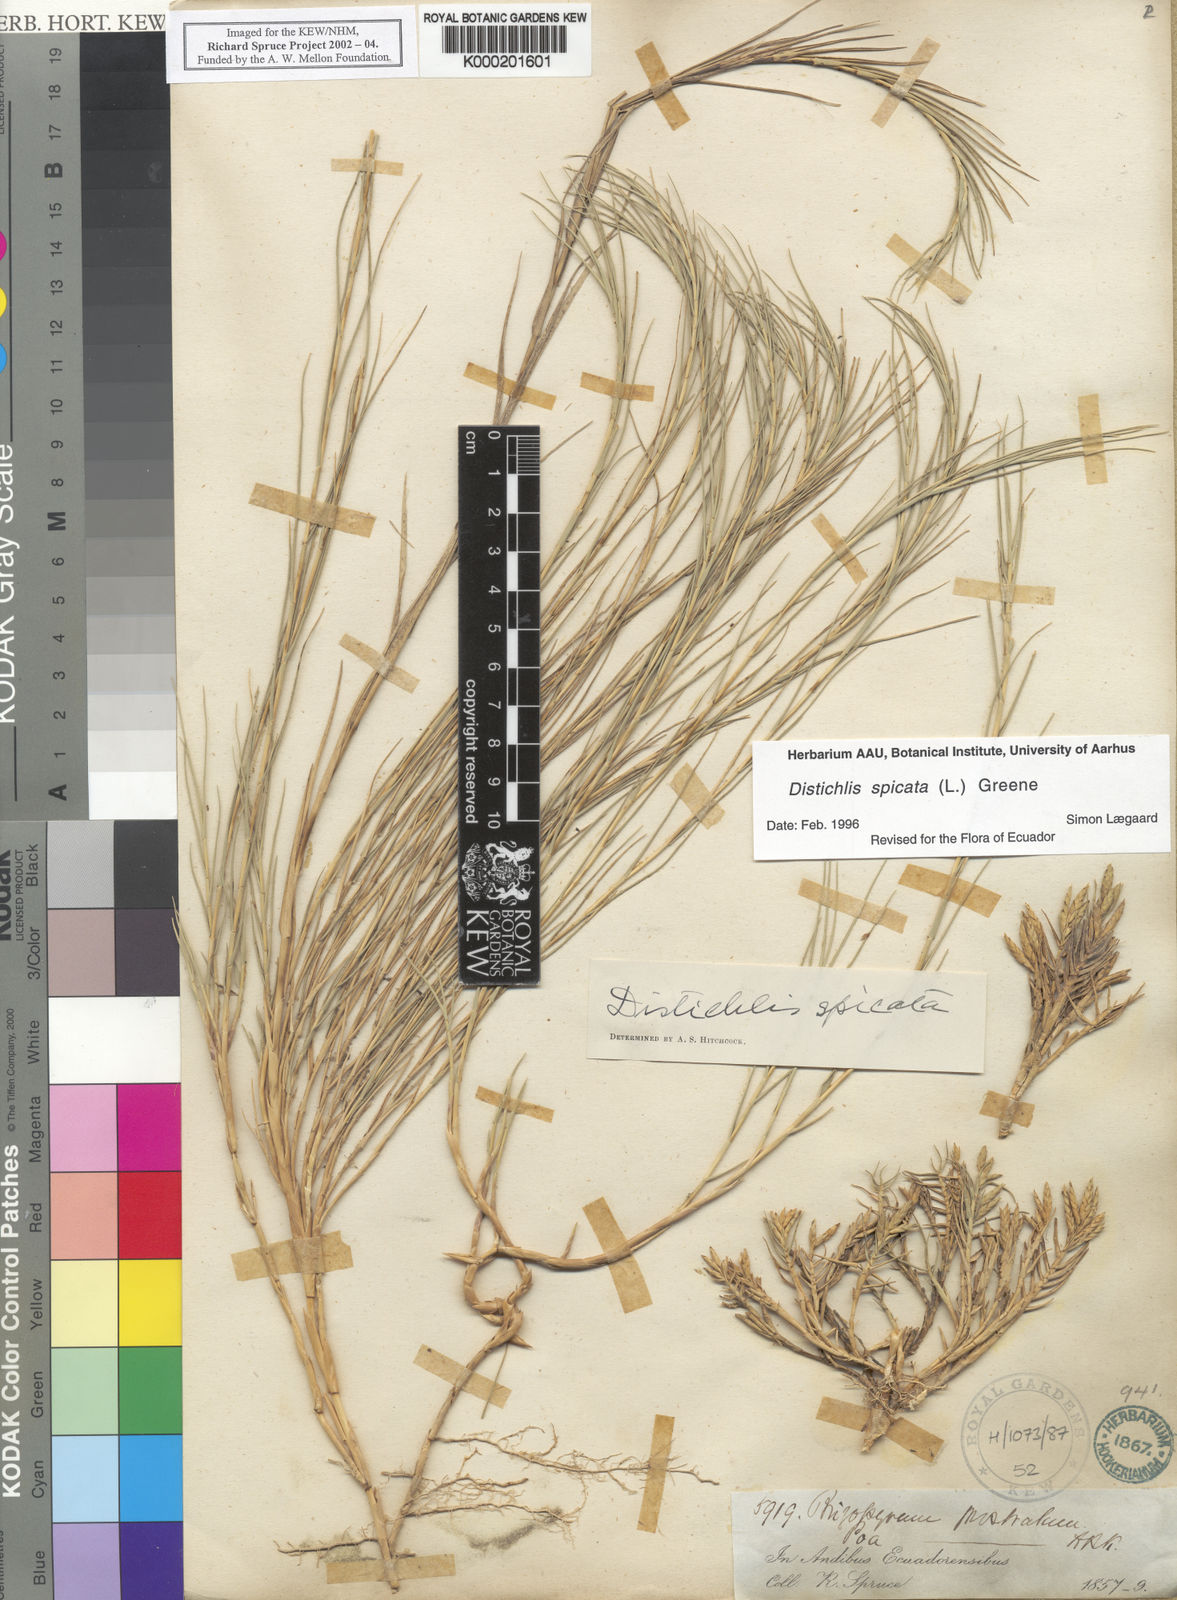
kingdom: Plantae
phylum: Tracheophyta
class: Liliopsida
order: Poales
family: Poaceae
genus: Distichlis
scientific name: Distichlis spicata
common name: Saltgrass
